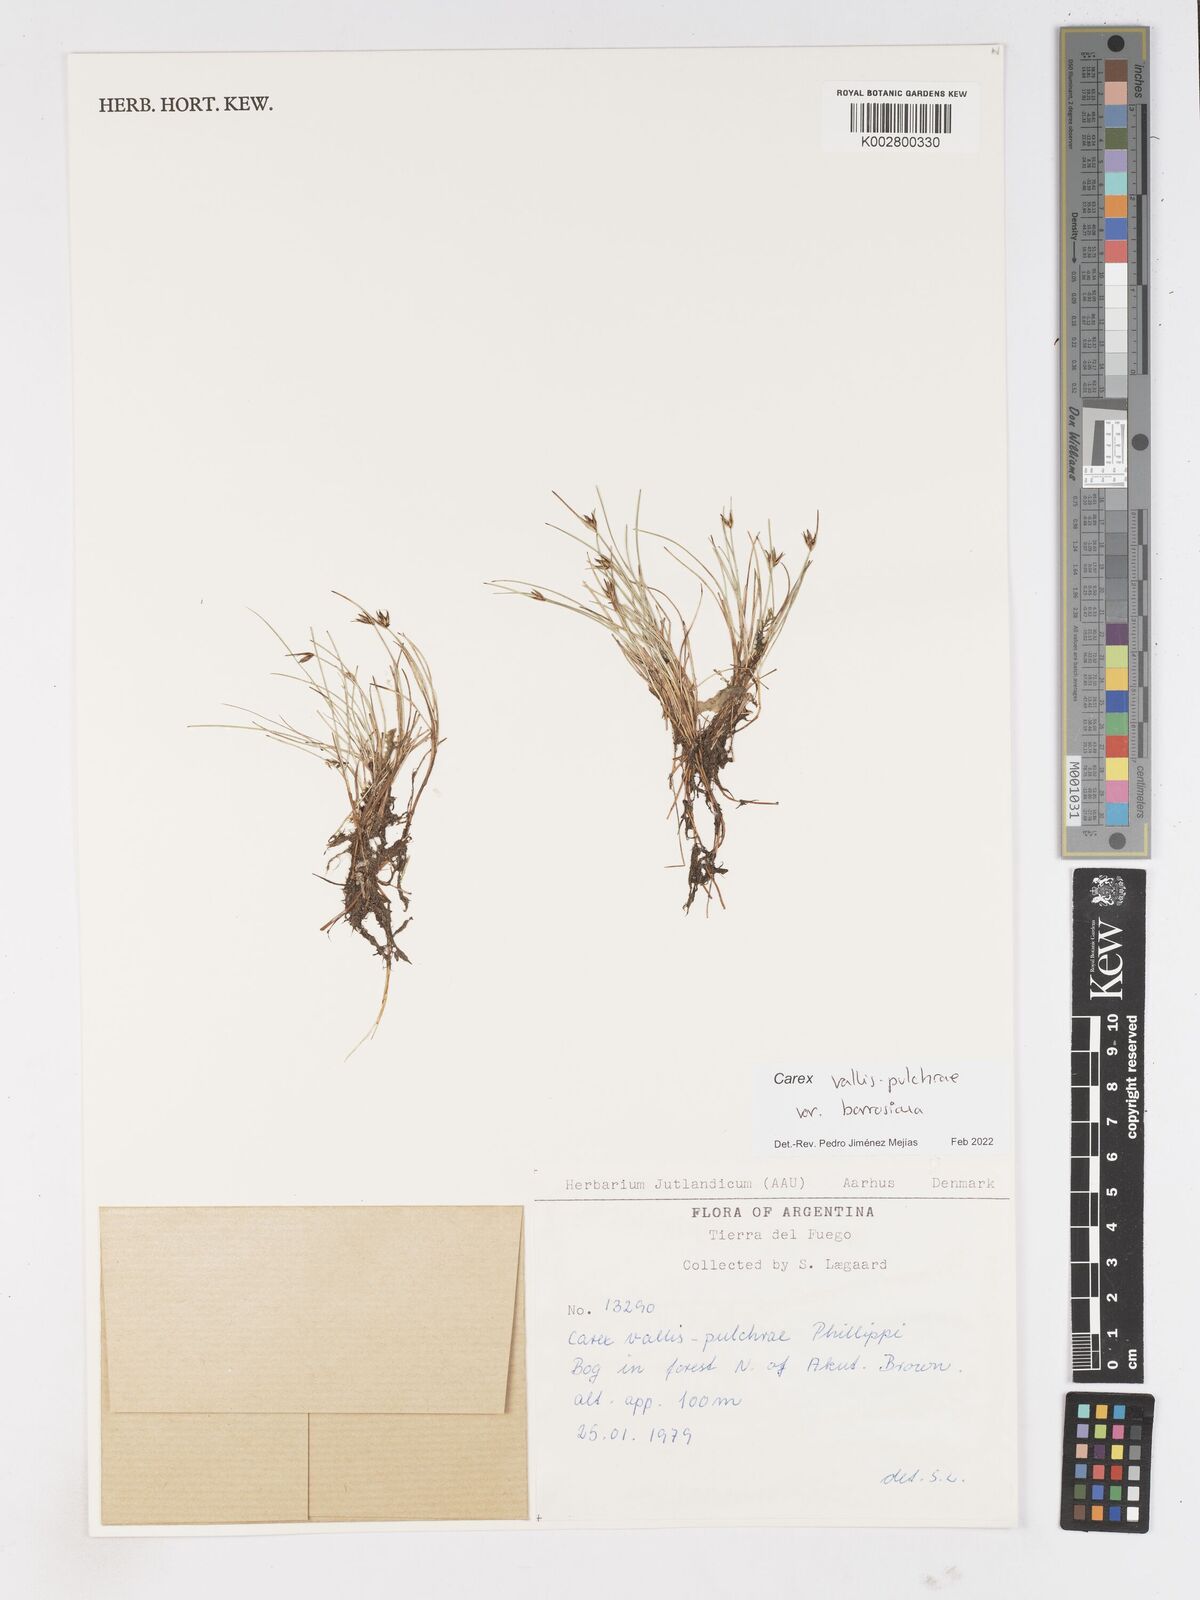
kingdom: Plantae
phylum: Tracheophyta
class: Liliopsida
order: Poales
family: Cyperaceae
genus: Carex
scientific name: Carex vallis-pulchrae
